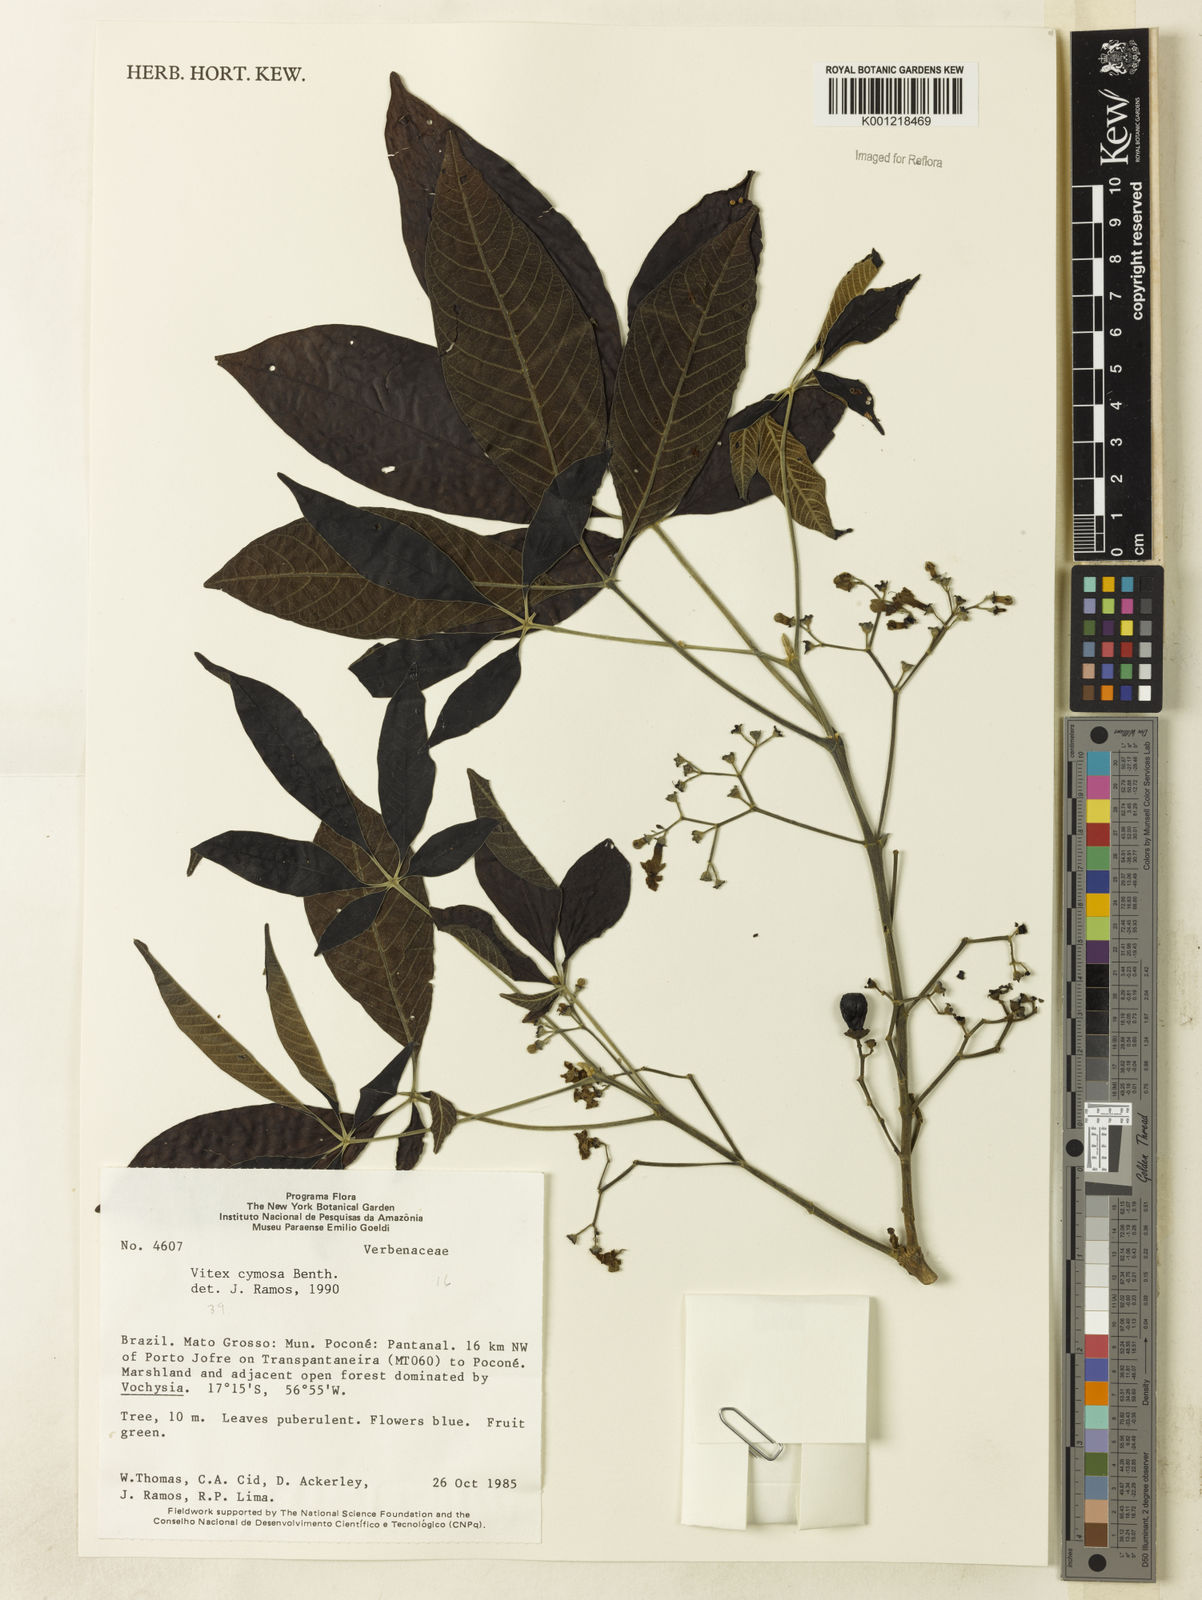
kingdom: Plantae
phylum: Tracheophyta
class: Magnoliopsida
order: Lamiales
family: Lamiaceae
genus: Vitex
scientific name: Vitex cymosa
